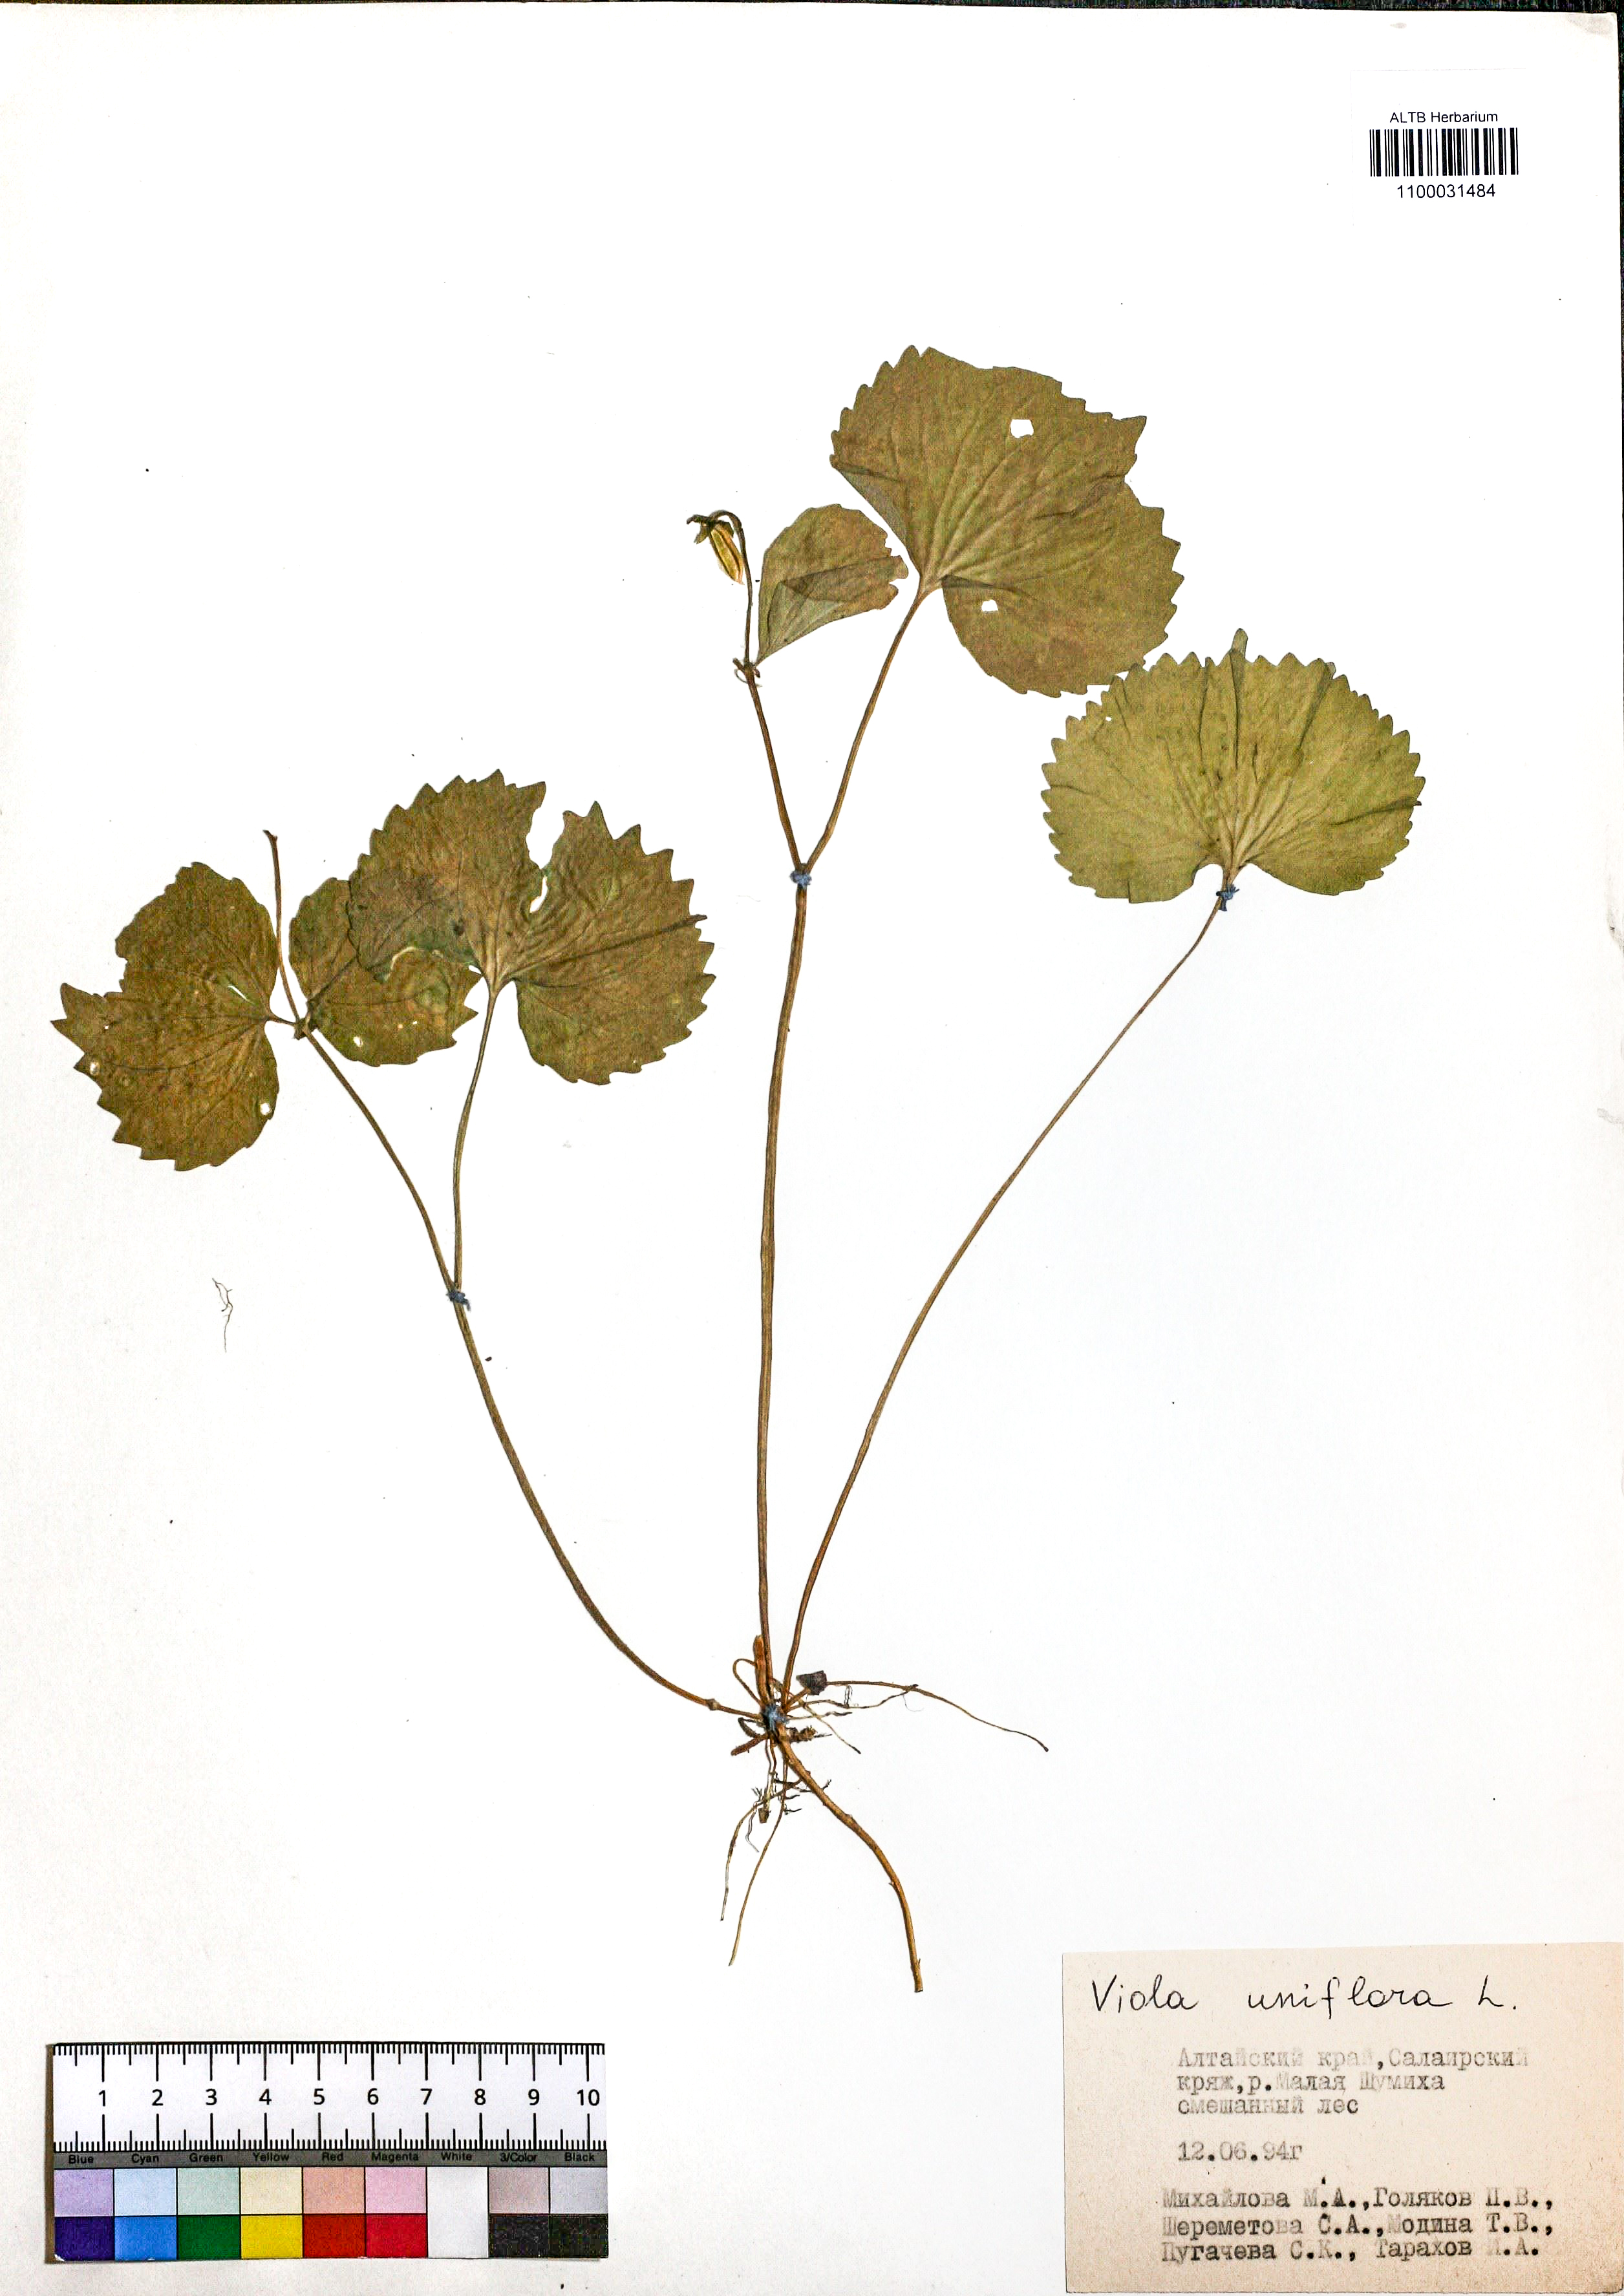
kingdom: Plantae
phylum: Tracheophyta
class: Magnoliopsida
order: Malpighiales
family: Violaceae
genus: Viola
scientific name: Viola uniflora
